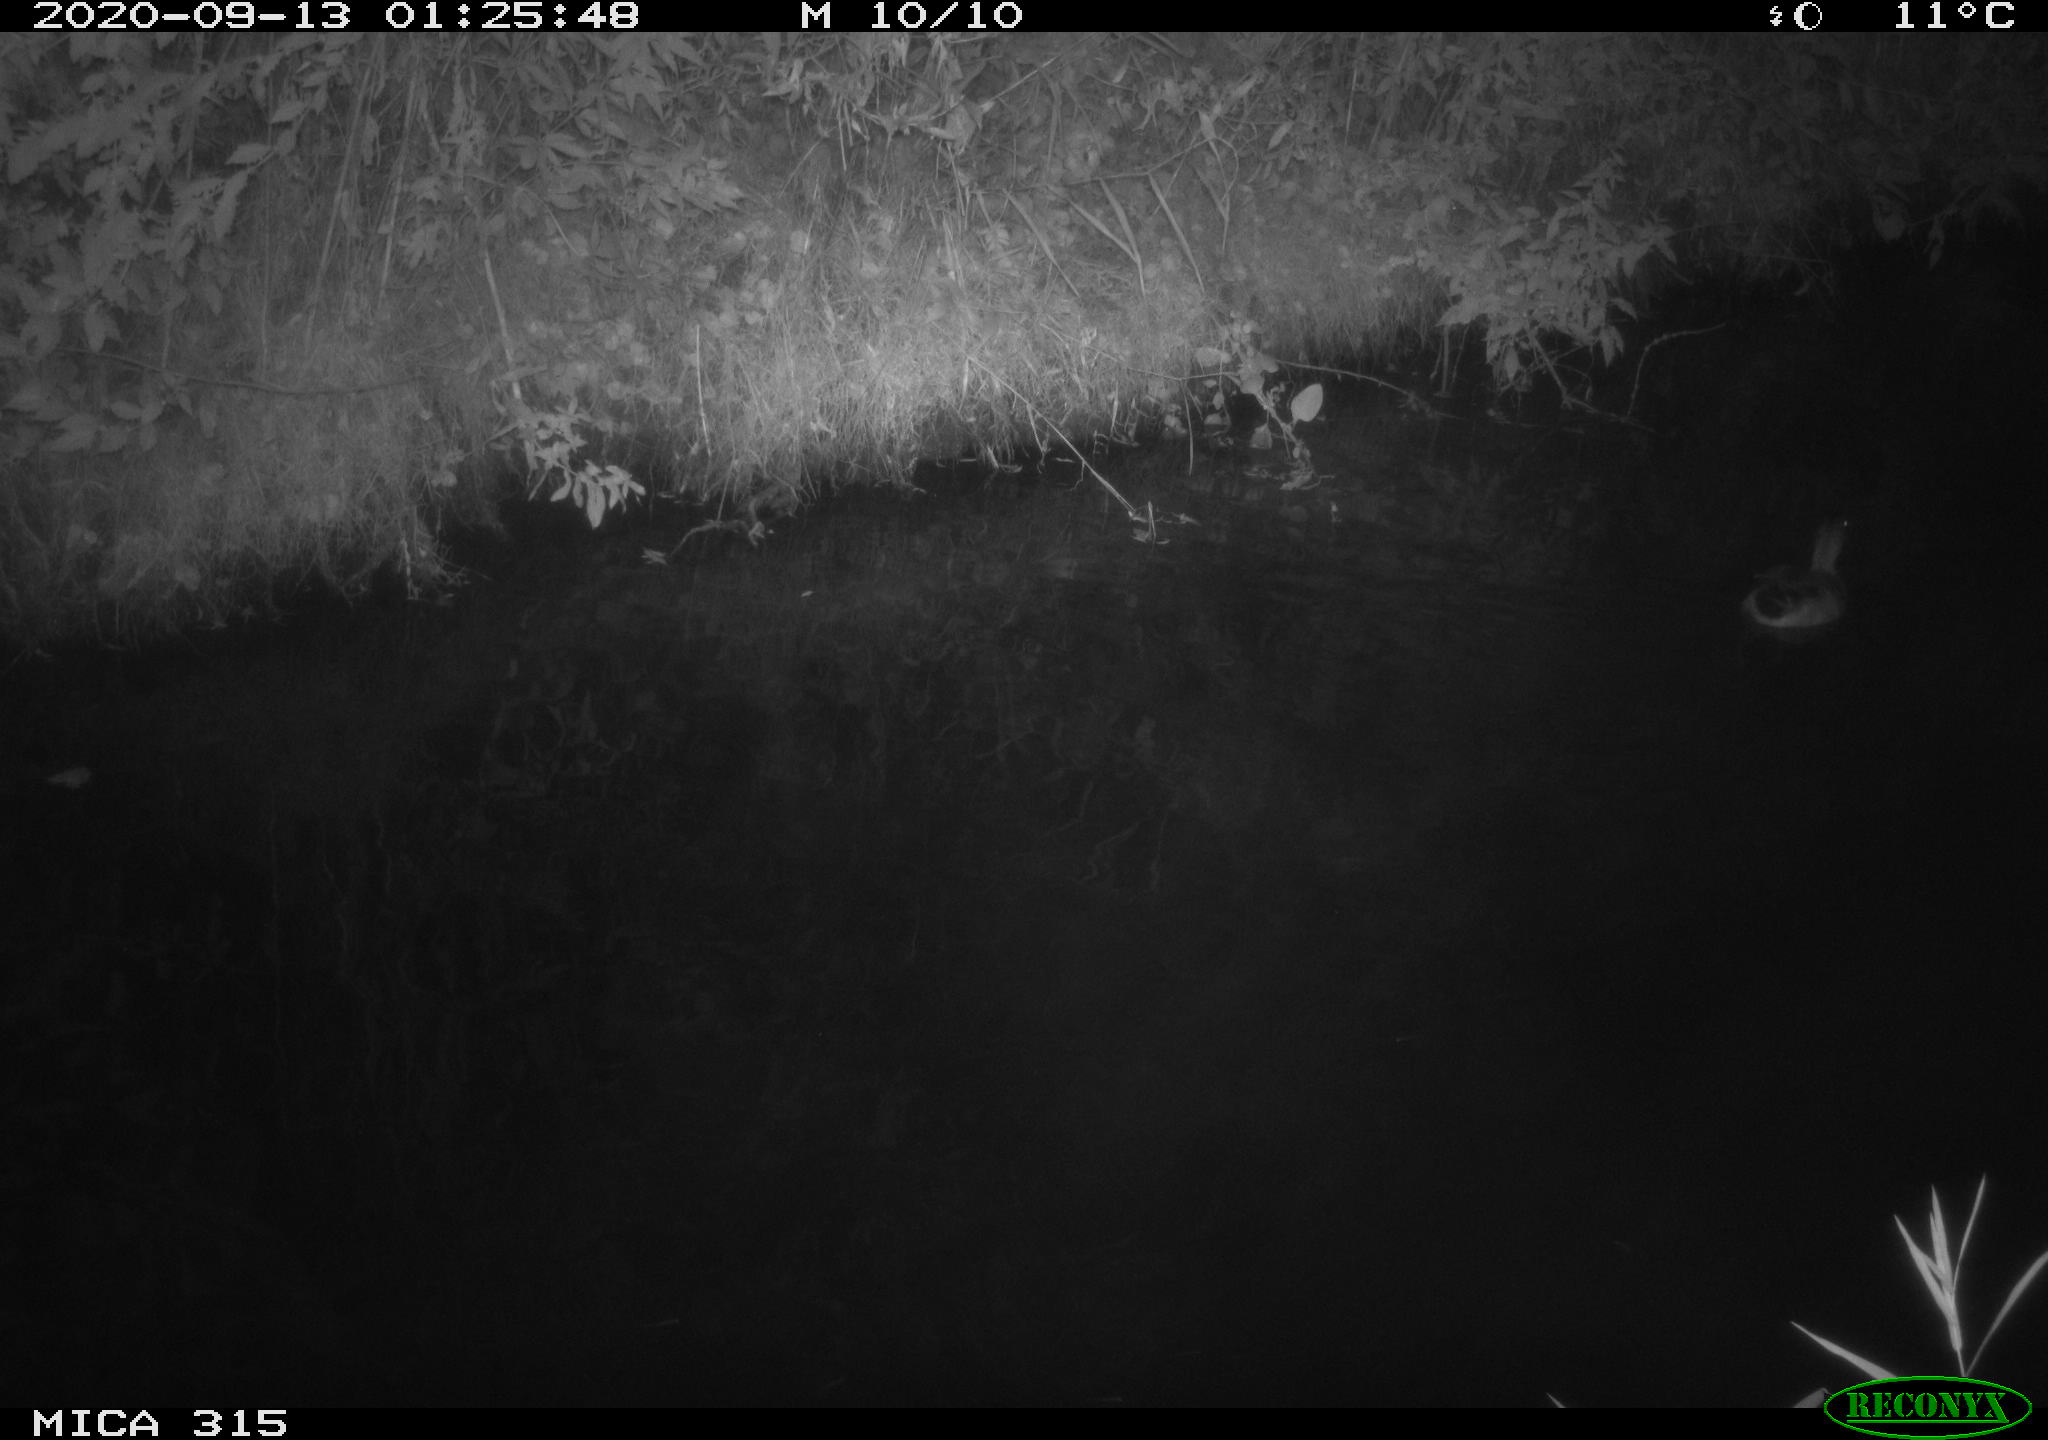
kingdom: Animalia
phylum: Chordata
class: Aves
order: Anseriformes
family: Anatidae
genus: Anas
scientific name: Anas platyrhynchos
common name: Mallard
